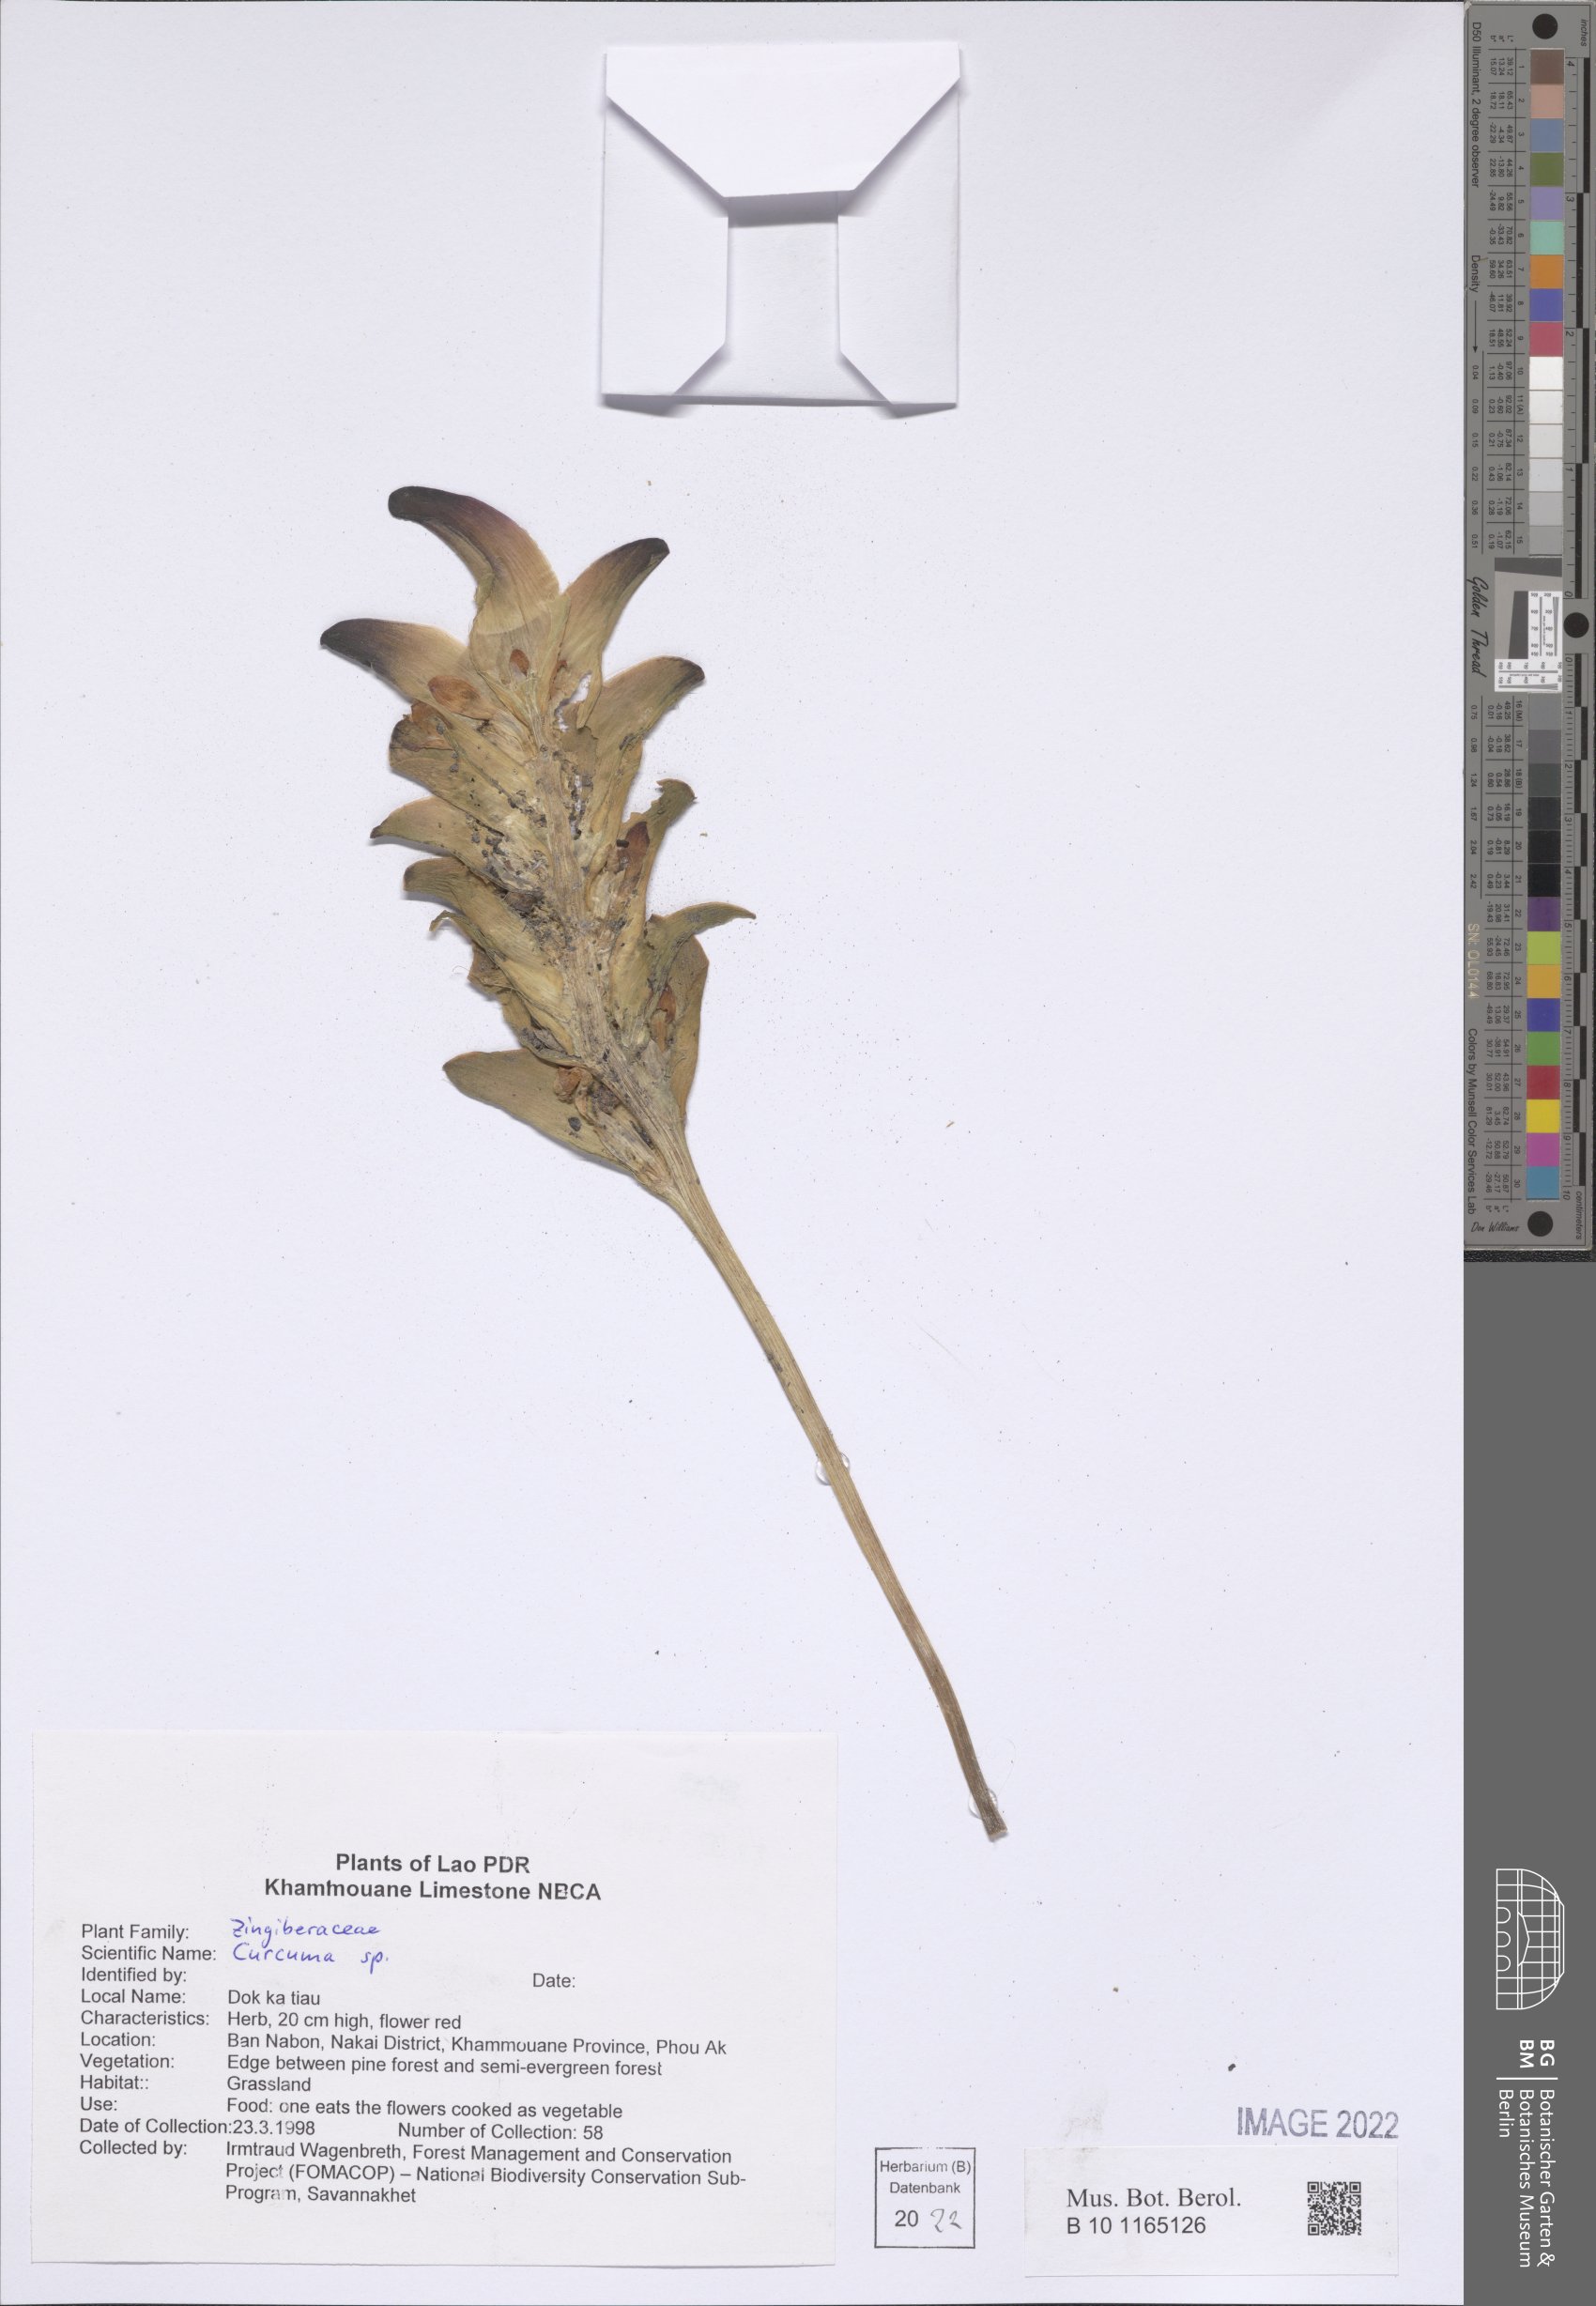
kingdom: Plantae
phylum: Tracheophyta
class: Liliopsida
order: Zingiberales
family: Zingiberaceae
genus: Curcuma
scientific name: Curcuma
